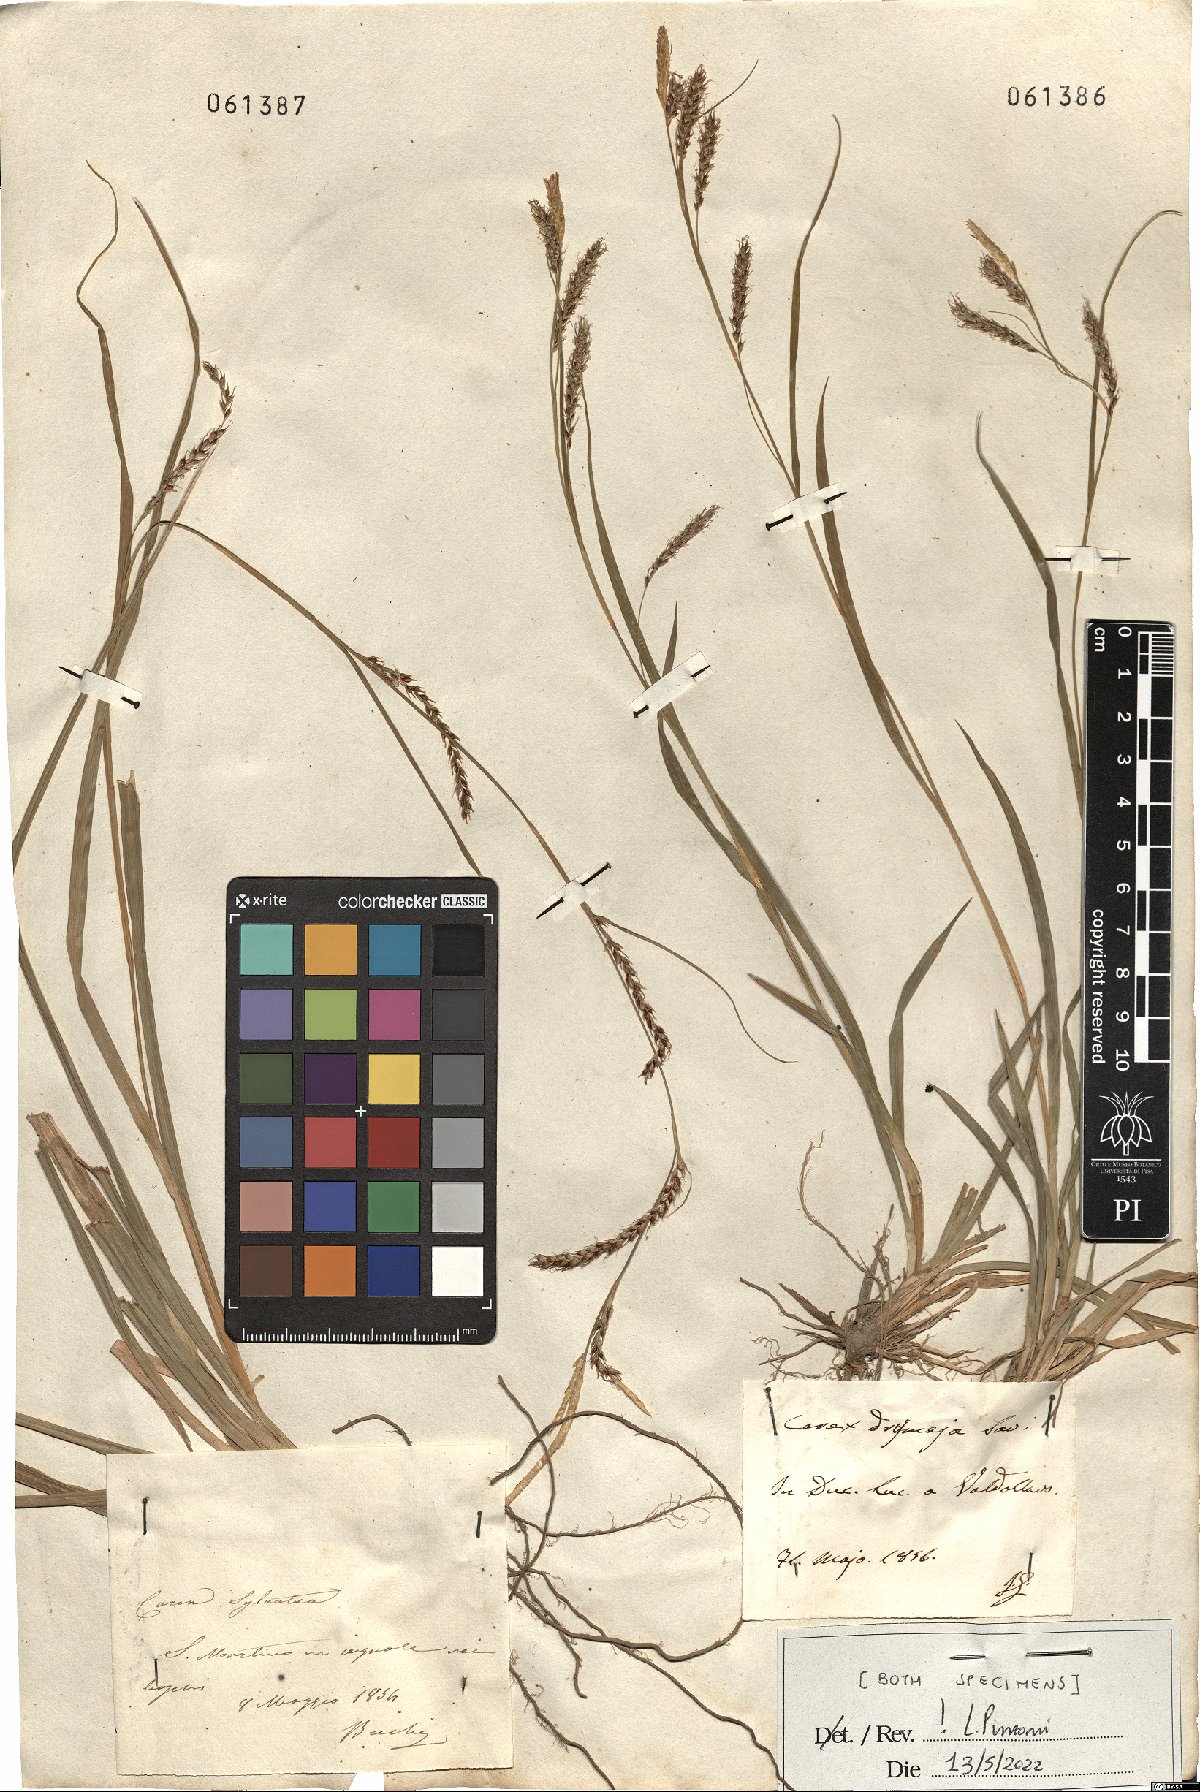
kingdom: Plantae
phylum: Tracheophyta
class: Liliopsida
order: Poales
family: Cyperaceae
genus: Carex
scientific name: Carex sylvatica
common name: Wood-sedge
